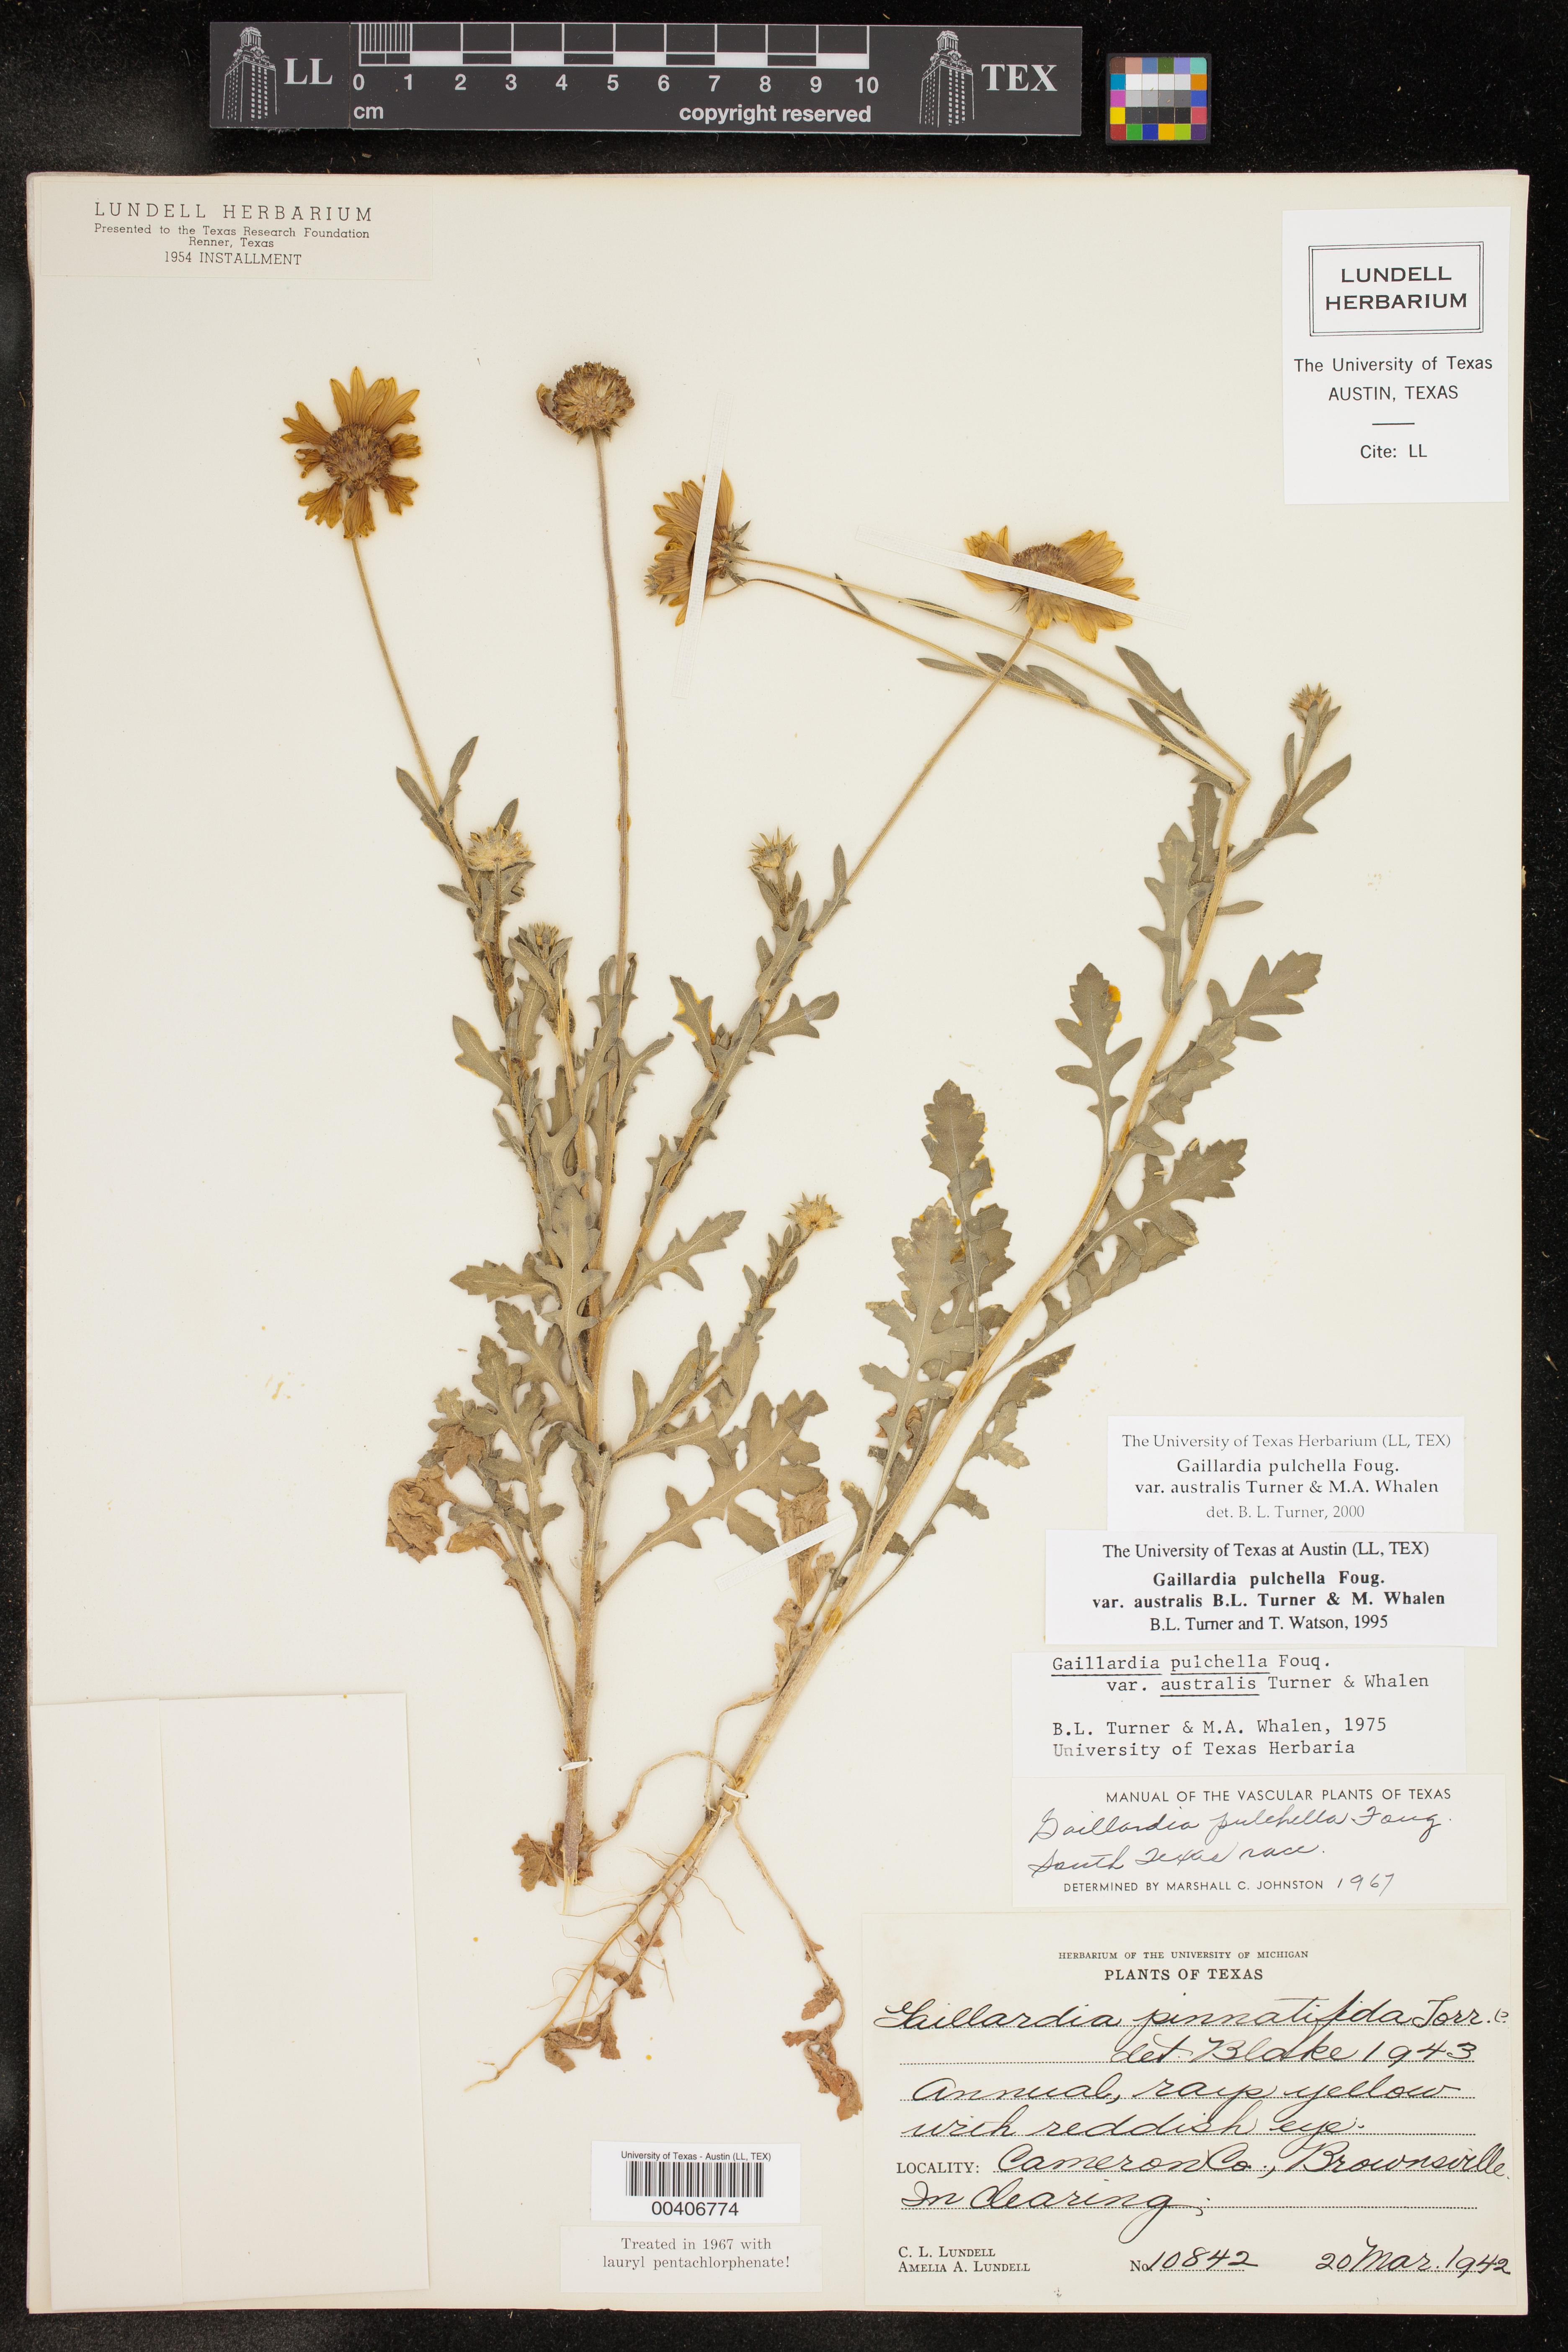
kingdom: Plantae
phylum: Tracheophyta
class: Magnoliopsida
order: Asterales
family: Asteraceae
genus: Gaillardia
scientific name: Gaillardia pulchella
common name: Firewheel
